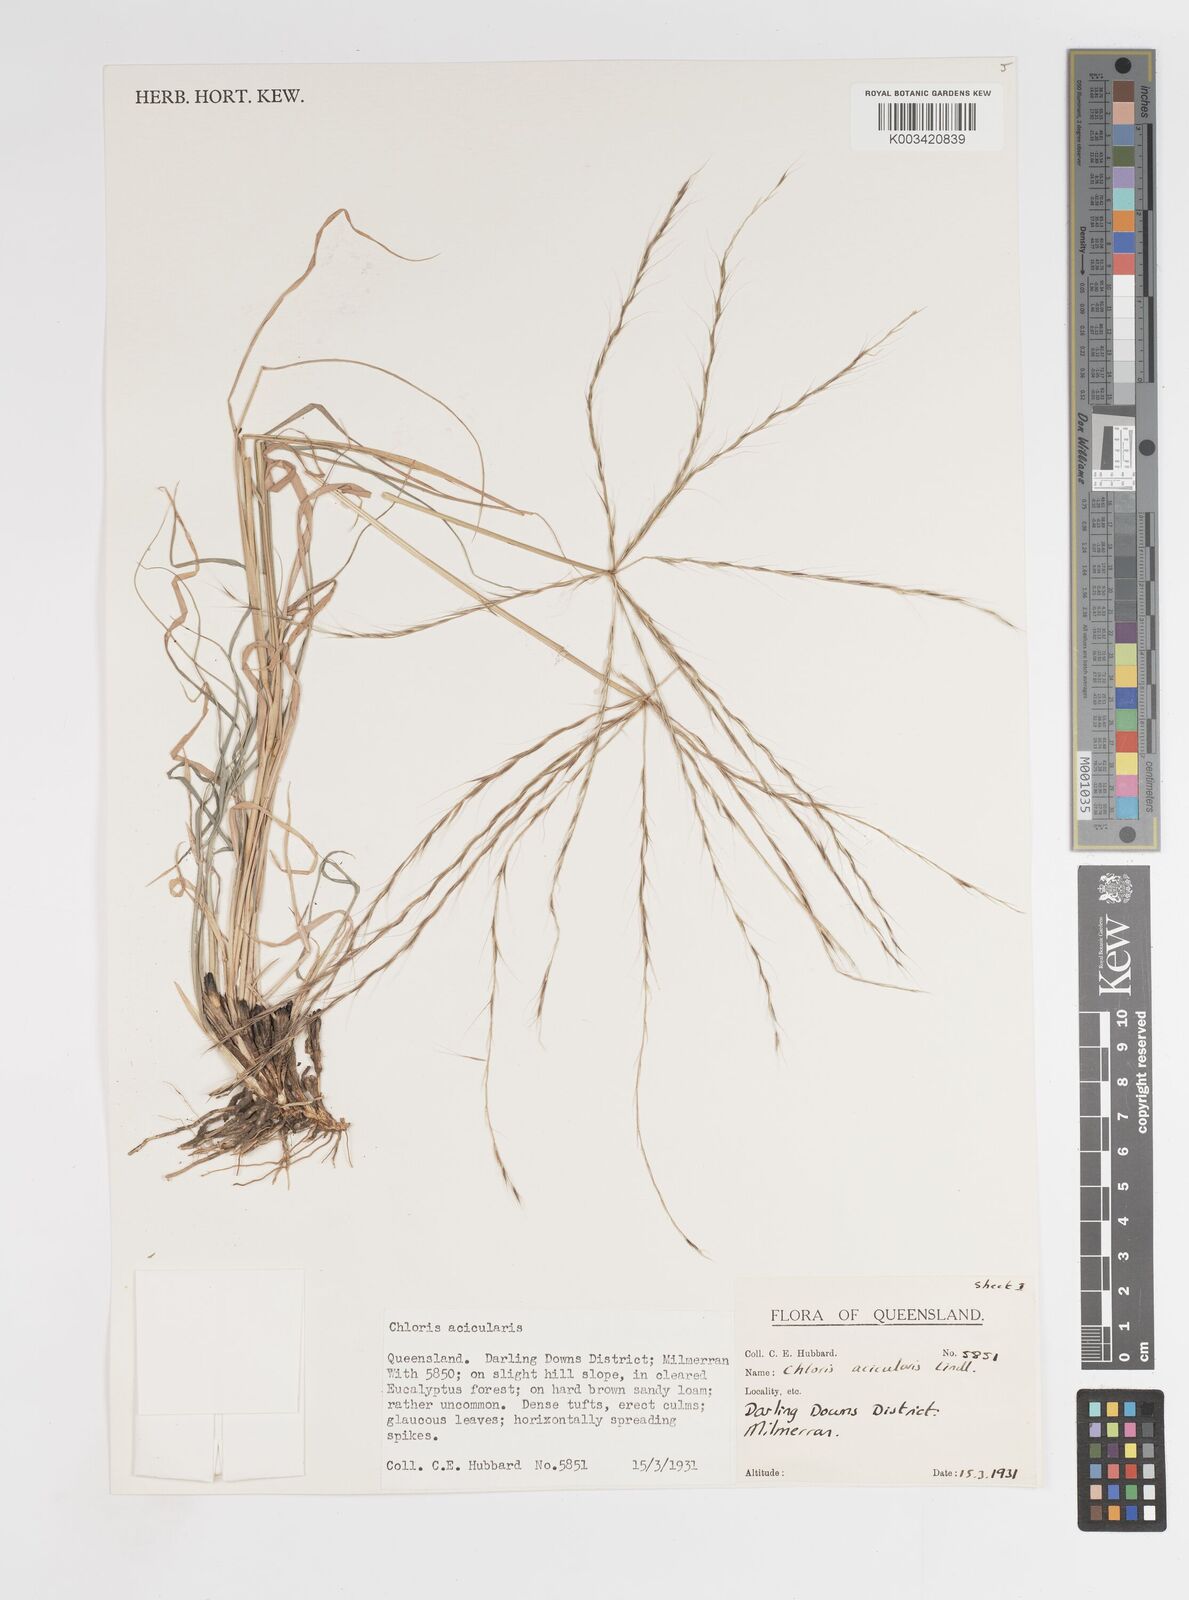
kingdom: Plantae
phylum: Tracheophyta
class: Liliopsida
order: Poales
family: Poaceae
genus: Enteropogon
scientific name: Enteropogon acicularis
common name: Curly windmill grass
